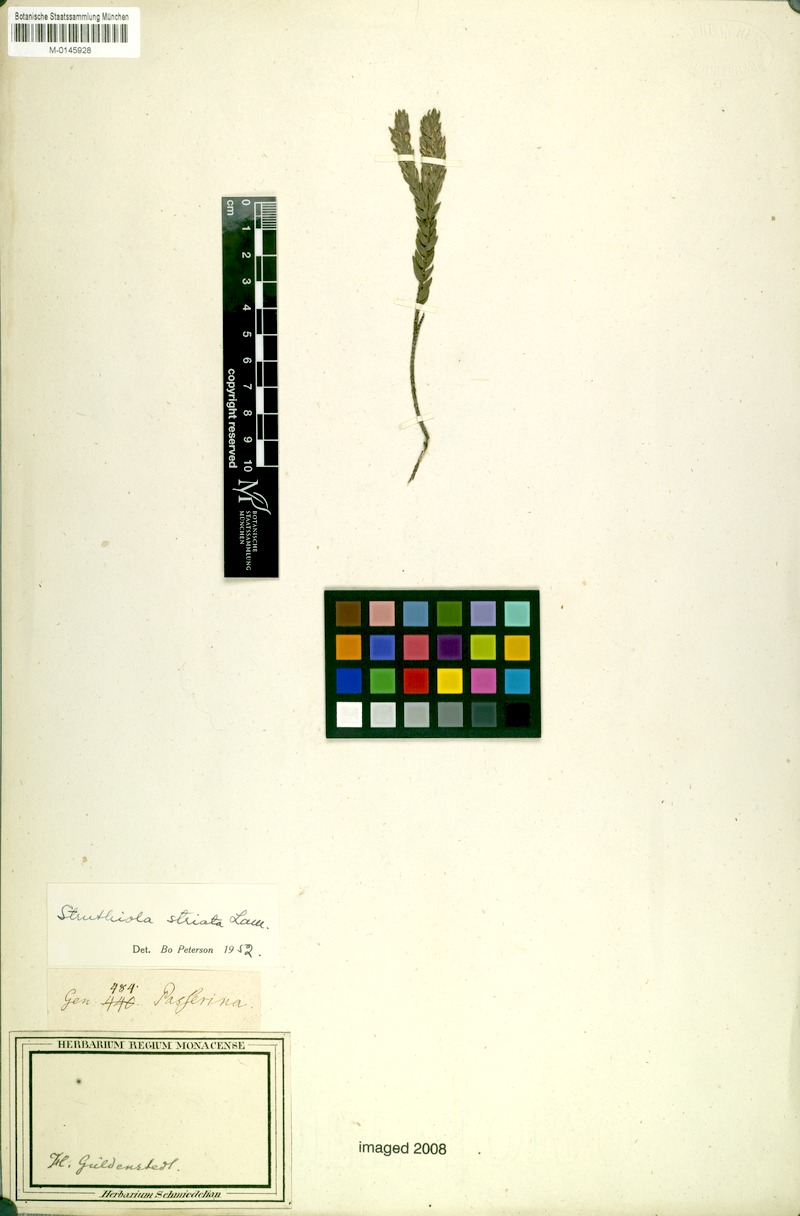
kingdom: Plantae
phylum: Tracheophyta
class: Magnoliopsida
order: Malvales
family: Thymelaeaceae
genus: Struthiola
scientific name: Struthiola striata
